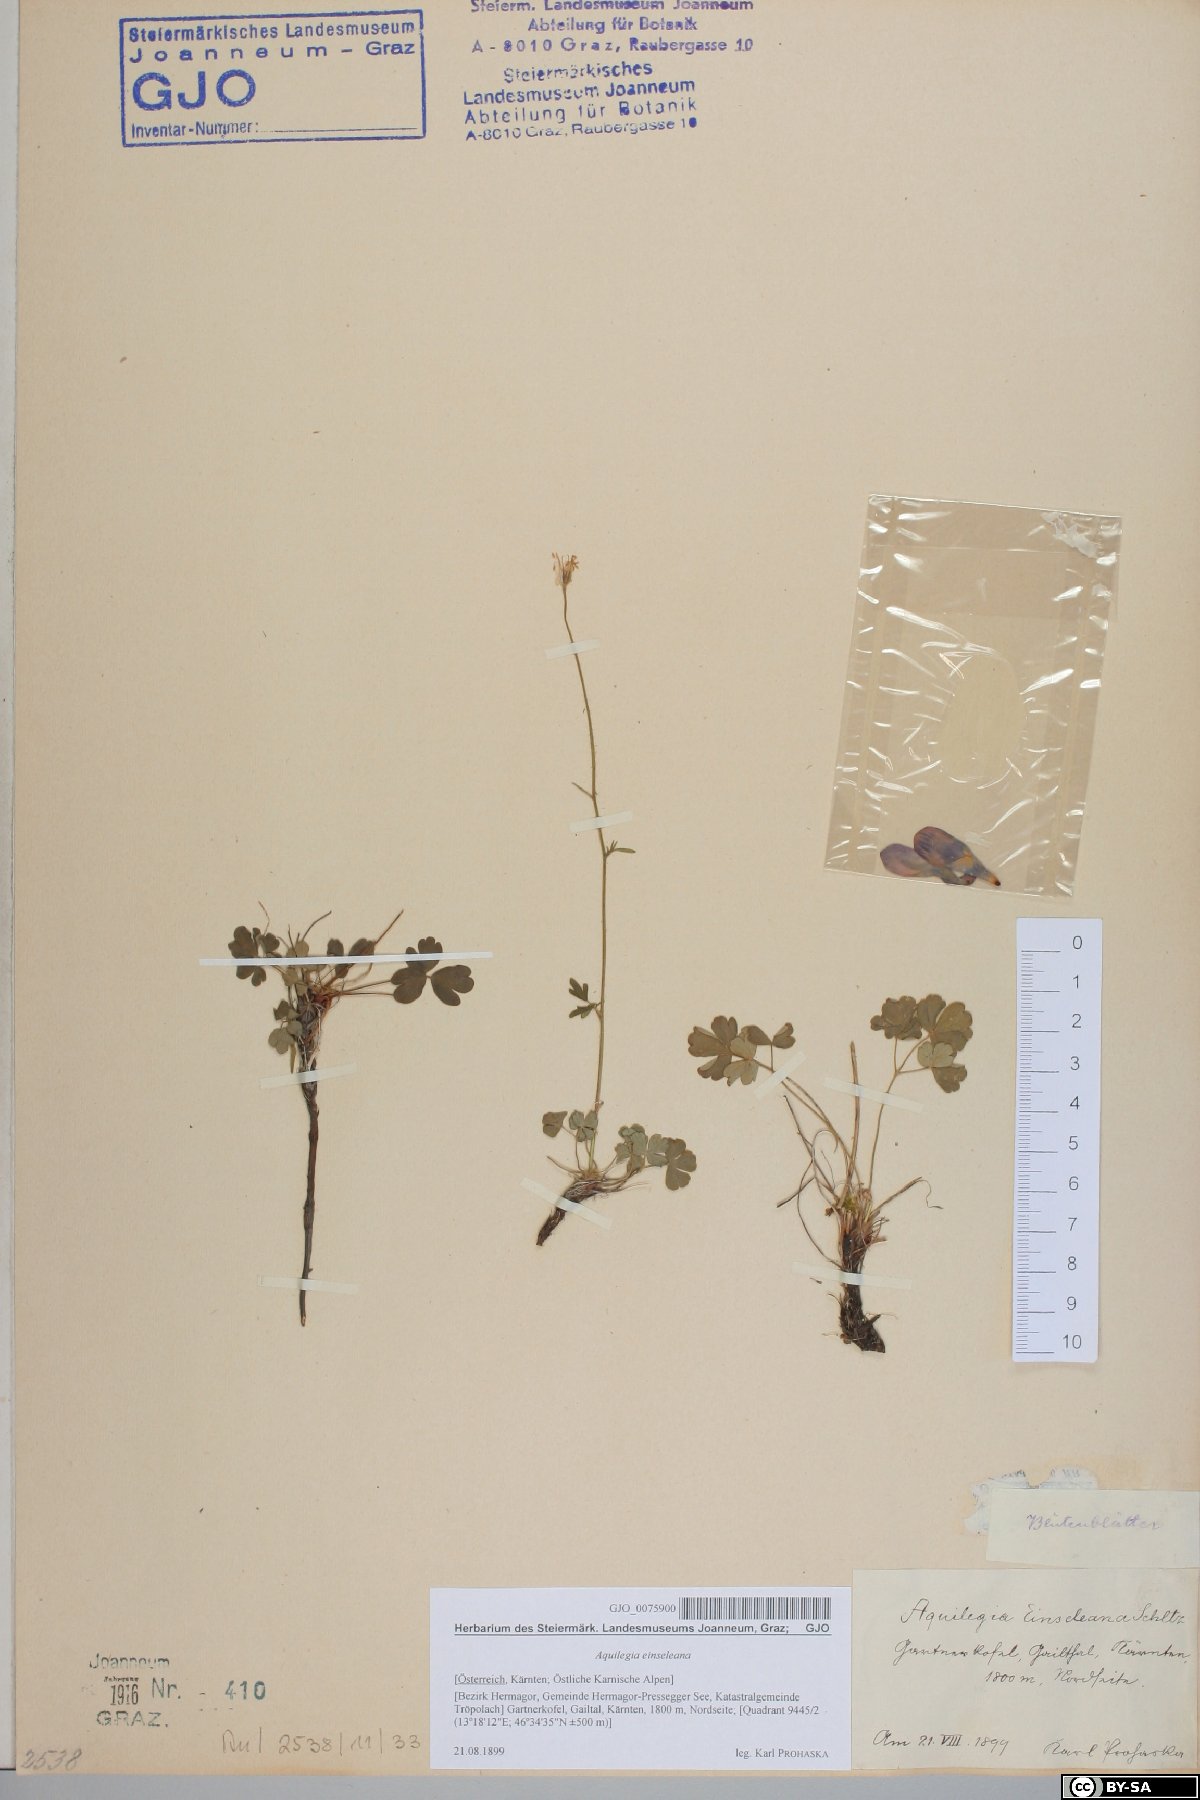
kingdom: Plantae
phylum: Tracheophyta
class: Magnoliopsida
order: Ranunculales
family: Ranunculaceae
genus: Aquilegia
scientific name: Aquilegia einseleana
